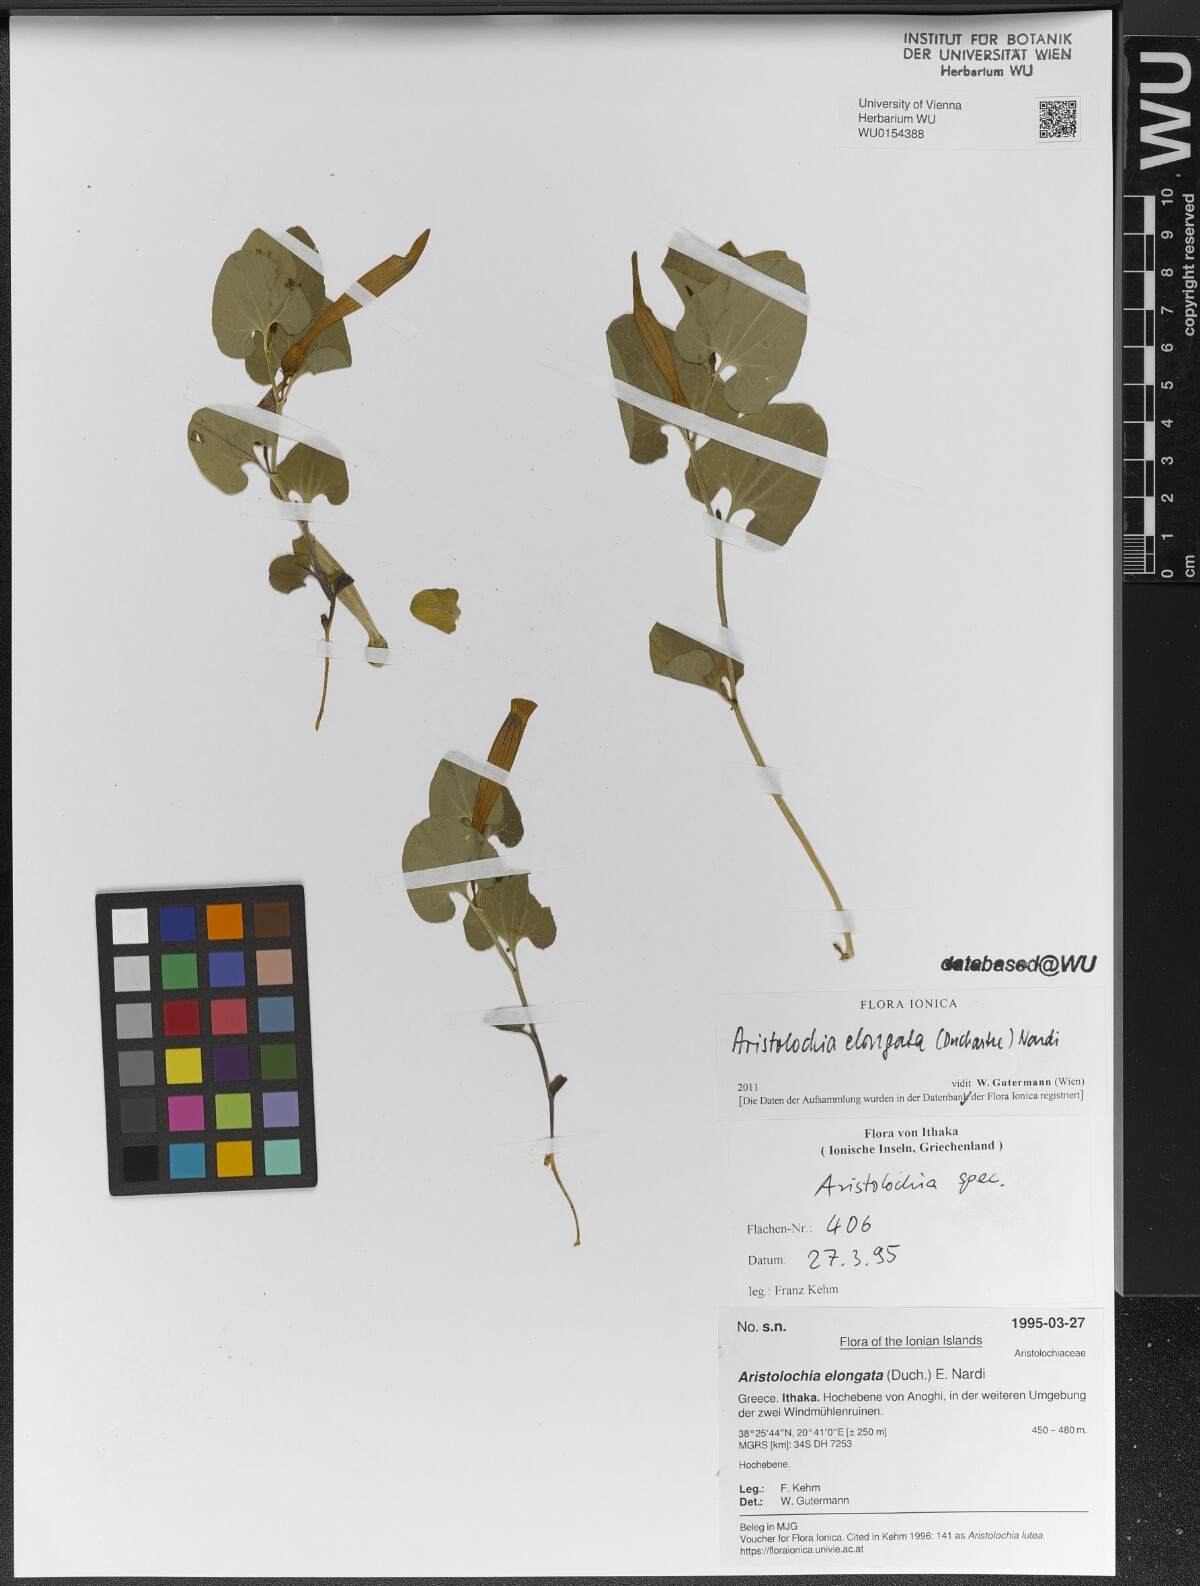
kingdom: Plantae
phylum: Tracheophyta
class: Magnoliopsida
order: Piperales
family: Aristolochiaceae
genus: Aristolochia
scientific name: Aristolochia nardiana
